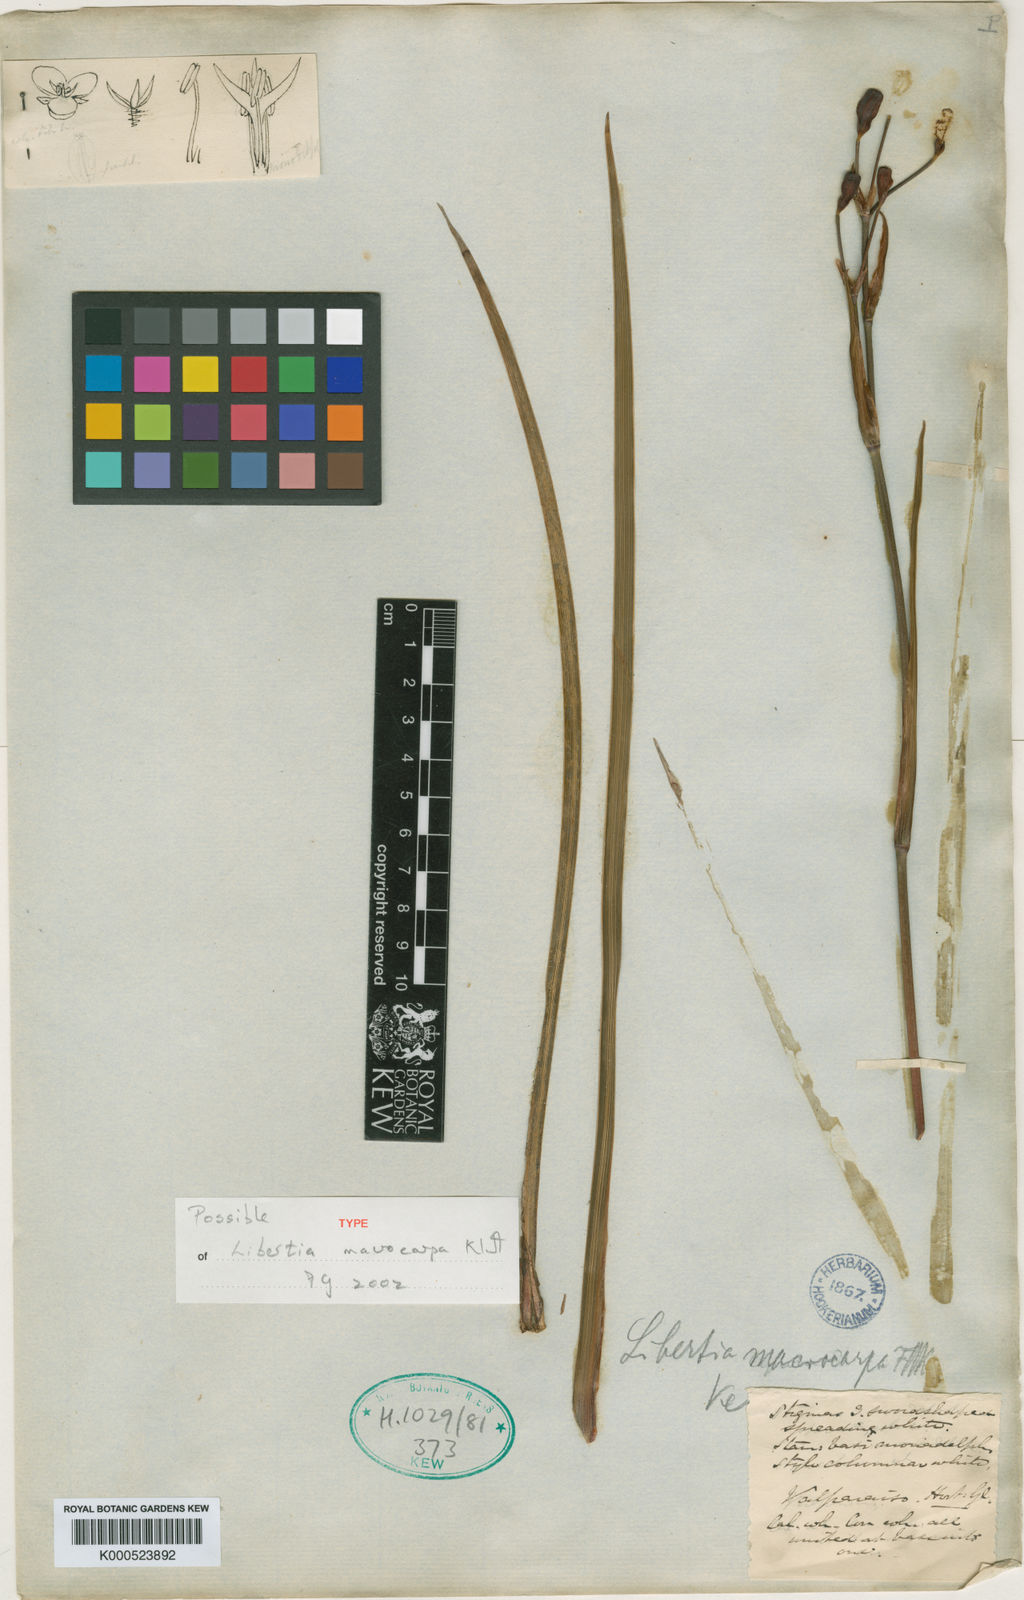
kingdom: Plantae
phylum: Tracheophyta
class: Liliopsida
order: Asparagales
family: Iridaceae
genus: Libertia
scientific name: Libertia ixioides
